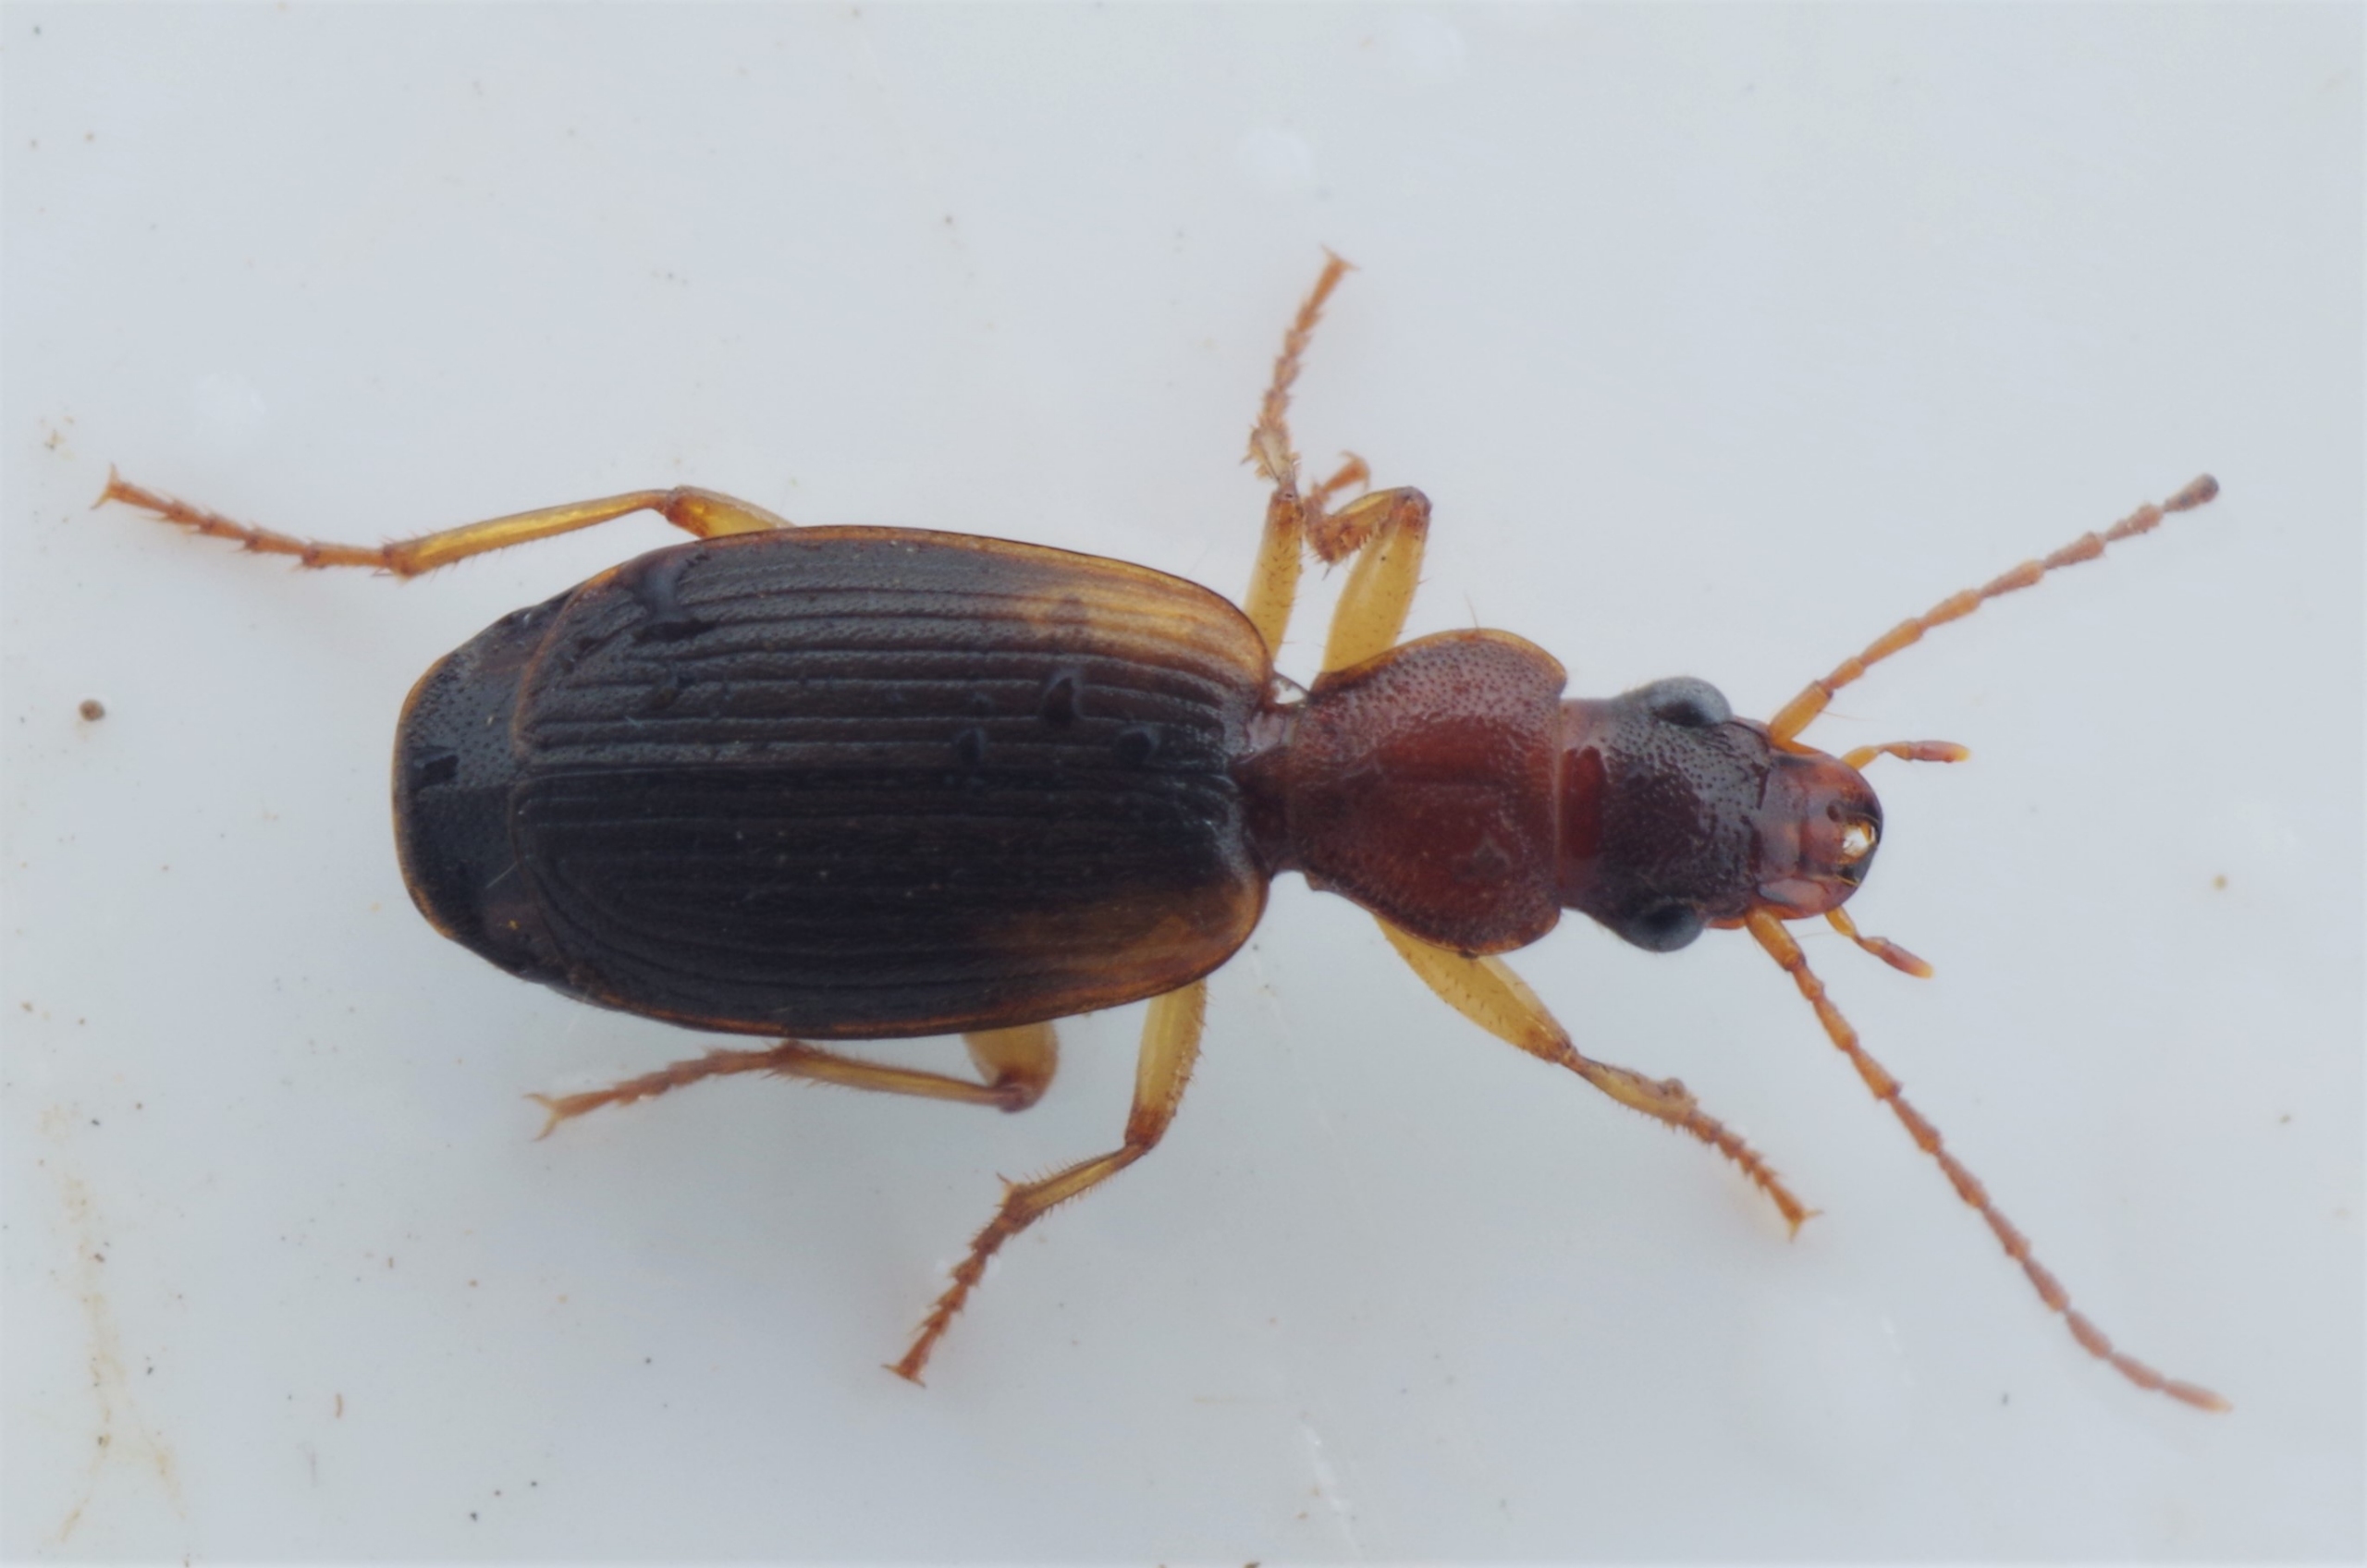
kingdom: Animalia
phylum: Arthropoda
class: Insecta
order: Coleoptera
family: Carabidae
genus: Cymindis
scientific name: Cymindis angularis
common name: Smalbrystet hedeløber
